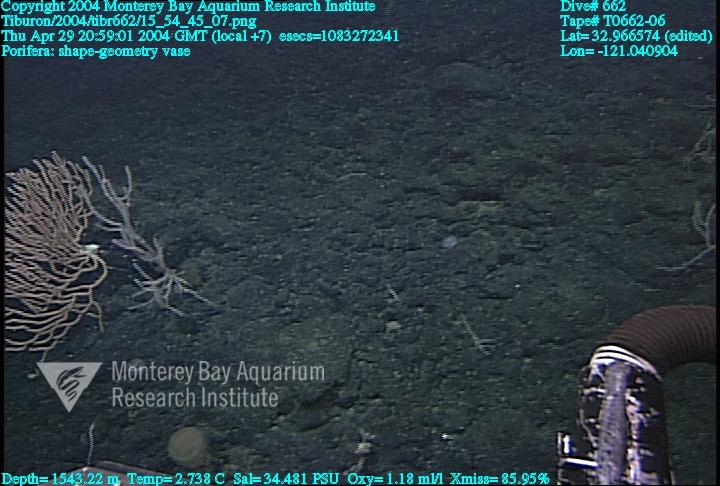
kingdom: Animalia
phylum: Porifera
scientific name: Porifera
